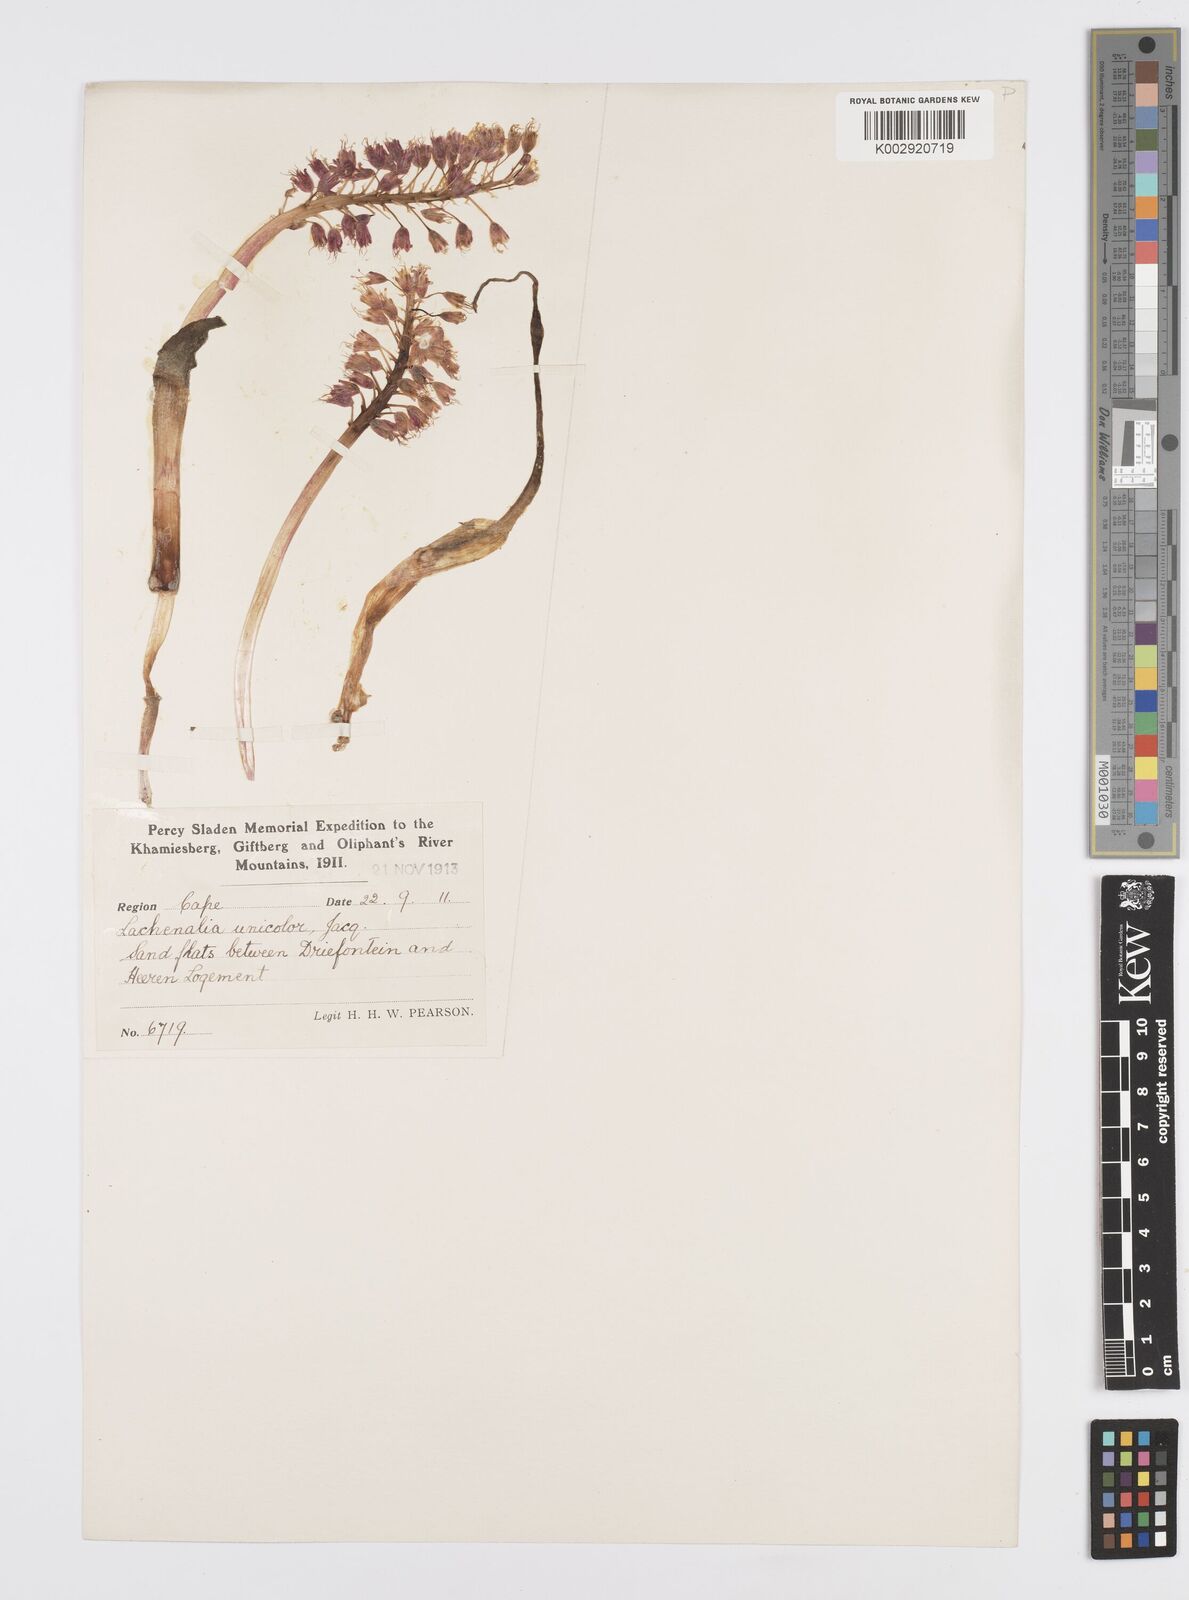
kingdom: Plantae
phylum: Tracheophyta
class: Liliopsida
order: Asparagales
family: Asparagaceae
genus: Lachenalia
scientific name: Lachenalia pallida
